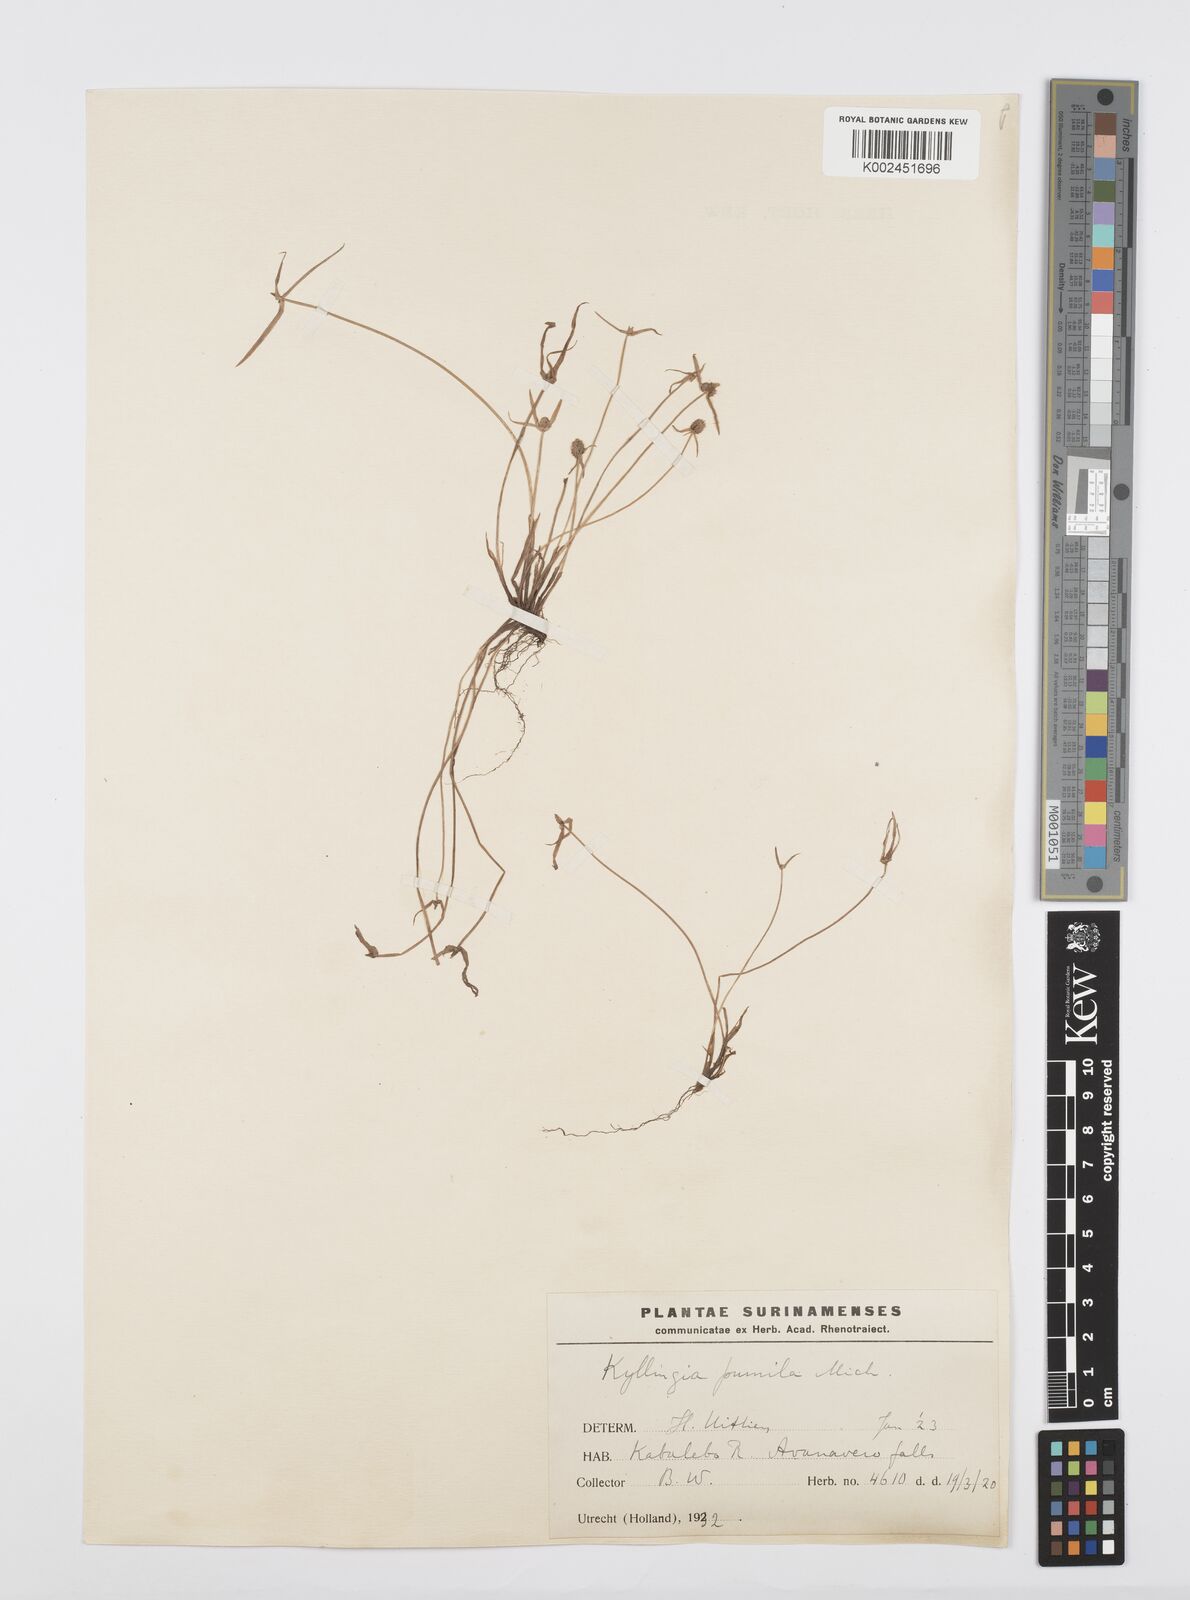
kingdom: Plantae
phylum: Tracheophyta
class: Liliopsida
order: Poales
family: Cyperaceae
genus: Cyperus
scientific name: Cyperus
